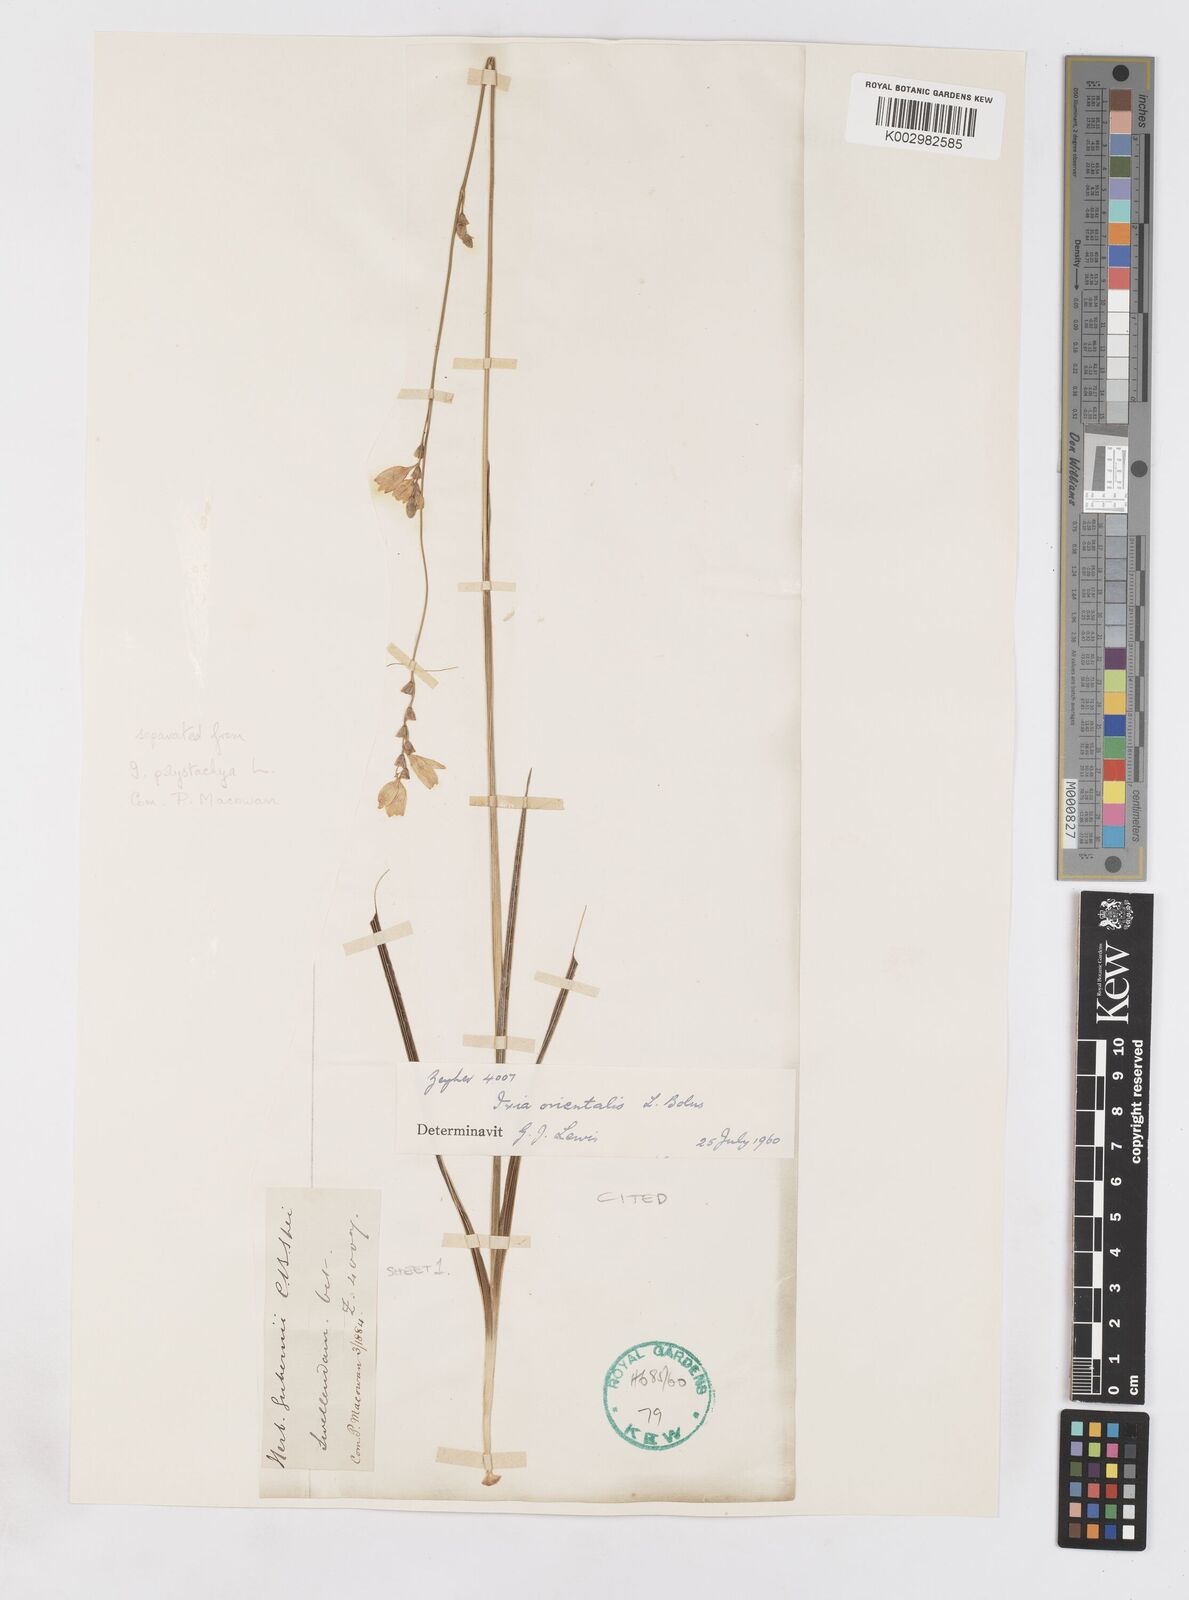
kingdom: Plantae
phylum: Tracheophyta
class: Liliopsida
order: Asparagales
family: Iridaceae
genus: Ixia
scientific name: Ixia orientalis
